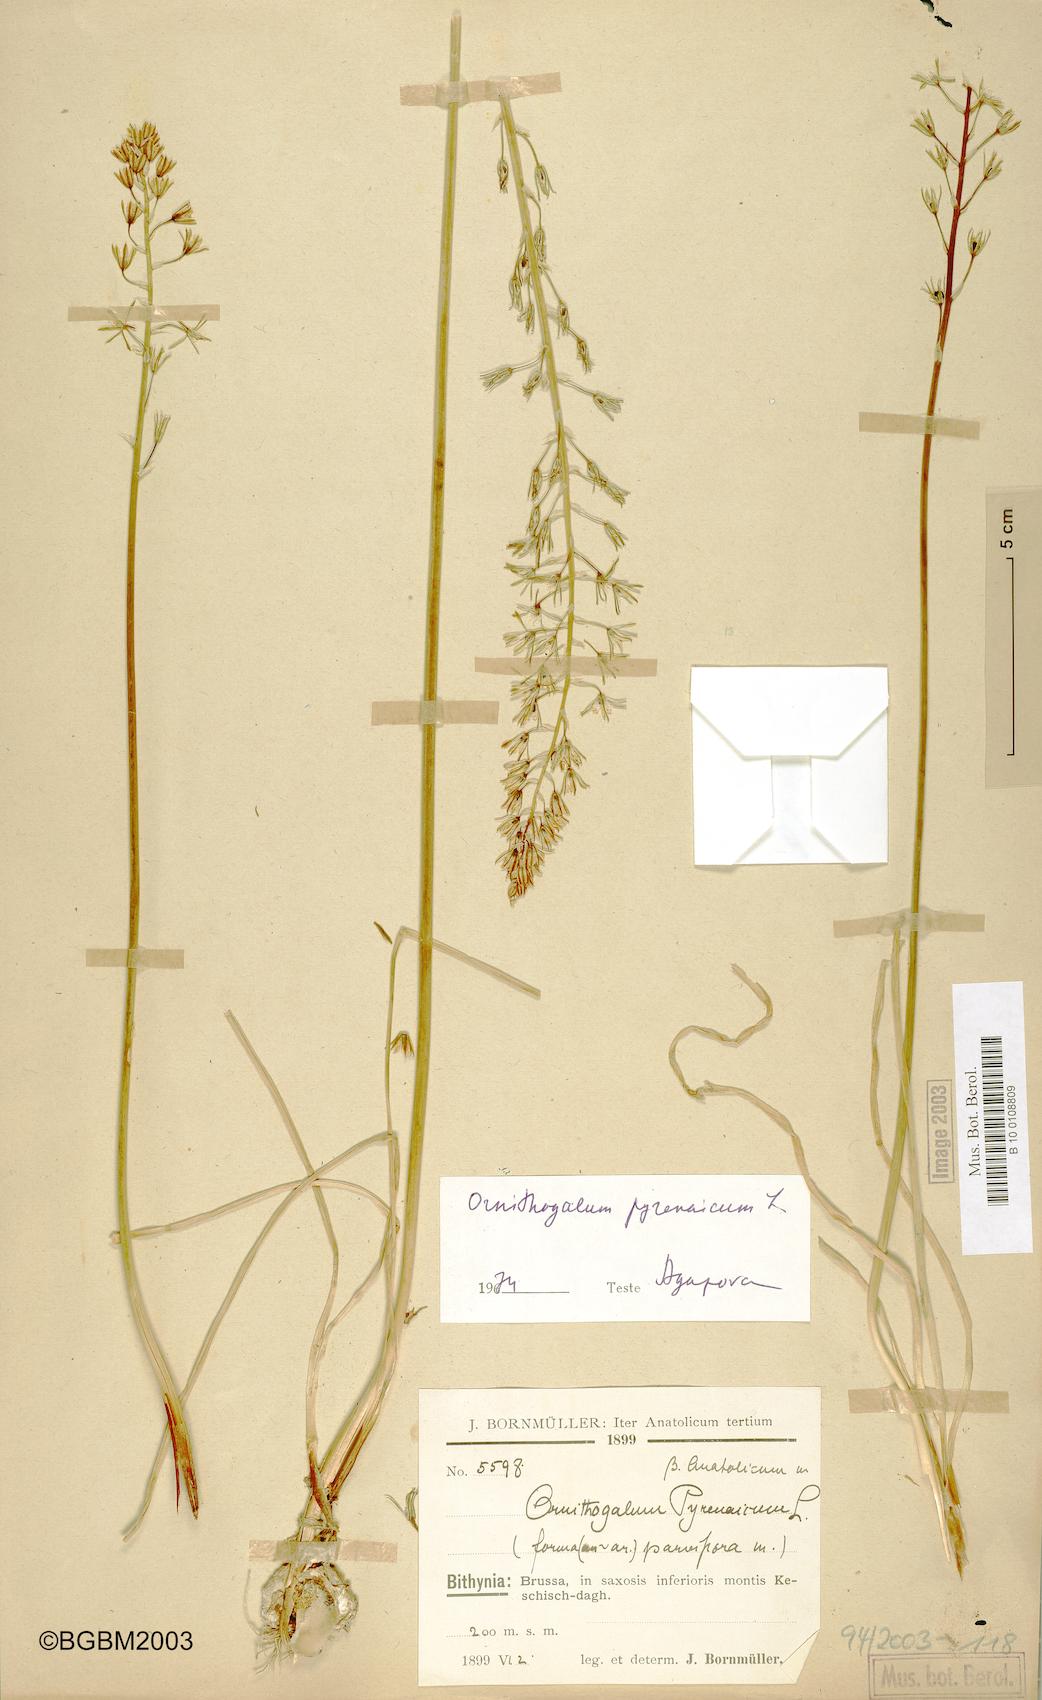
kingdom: Plantae
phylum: Tracheophyta
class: Liliopsida
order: Asparagales
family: Asparagaceae
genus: Ornithogalum
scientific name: Ornithogalum pyrenaicum
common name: Spiked star-of-bethlehem
